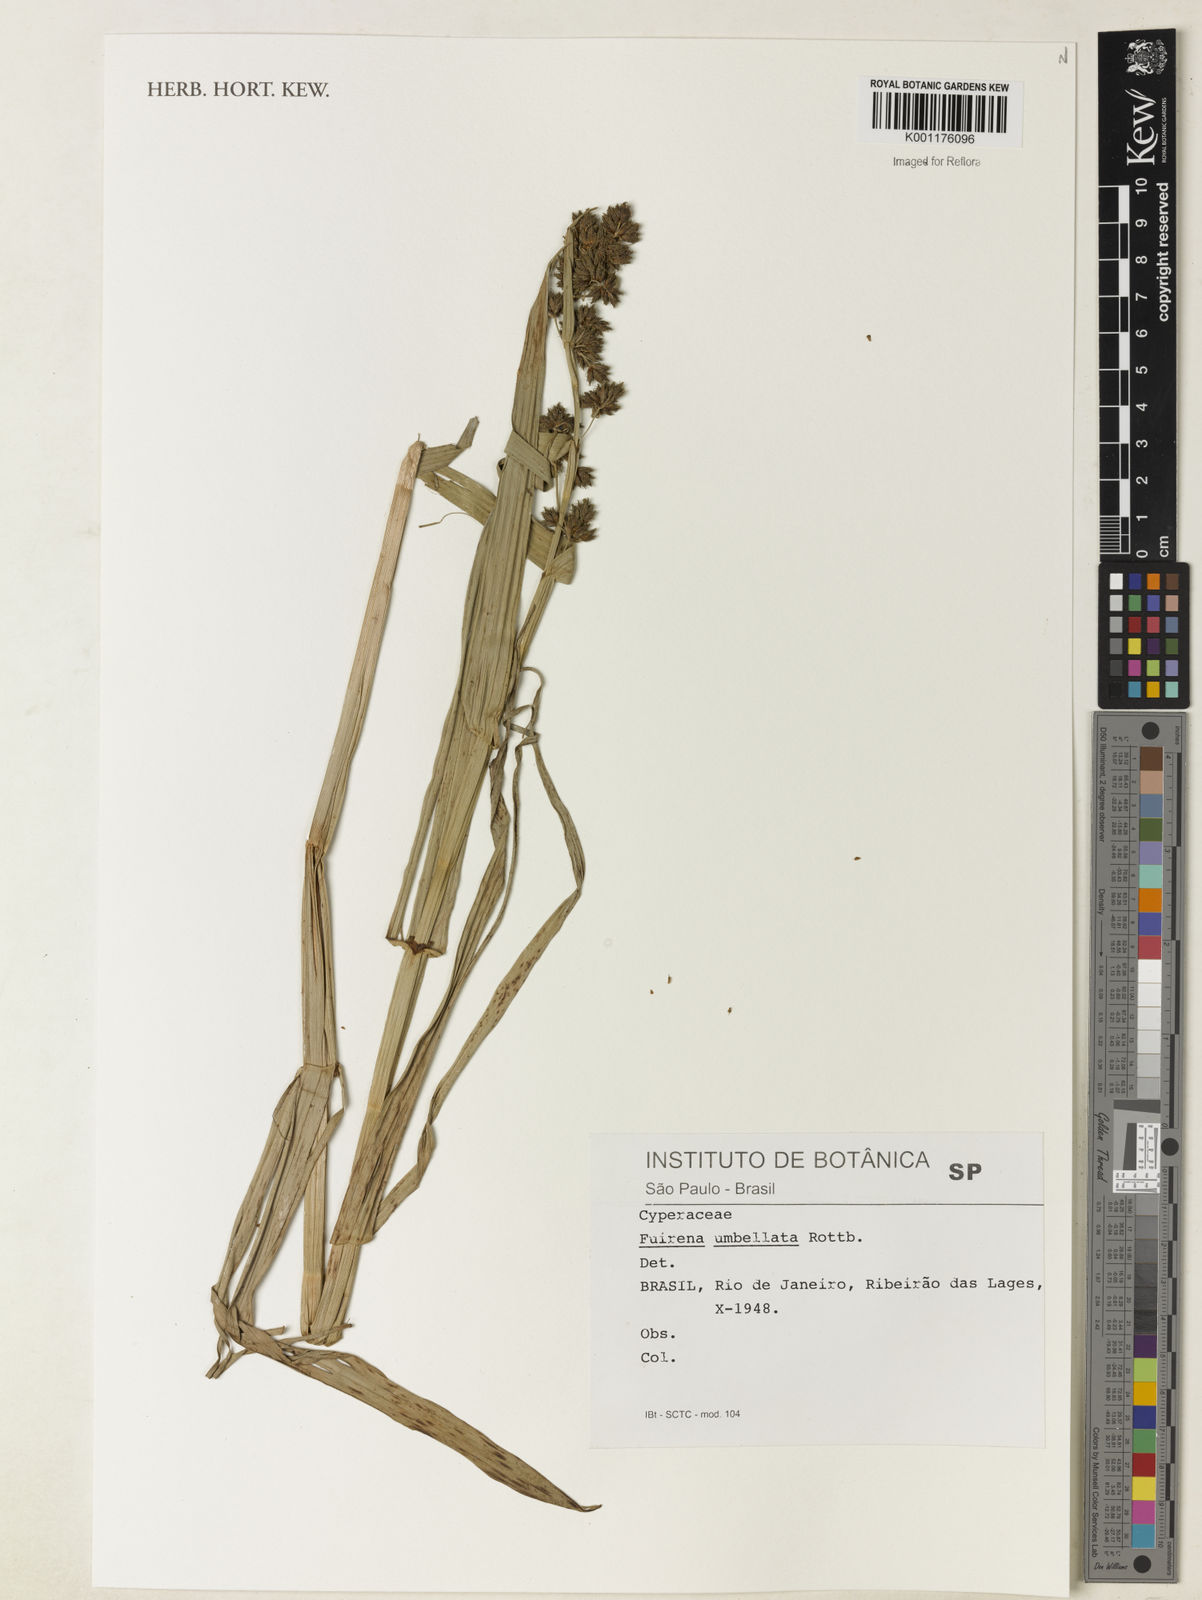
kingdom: Plantae
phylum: Tracheophyta
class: Liliopsida
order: Poales
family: Cyperaceae
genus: Fuirena
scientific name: Fuirena umbellata
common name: Yefen
